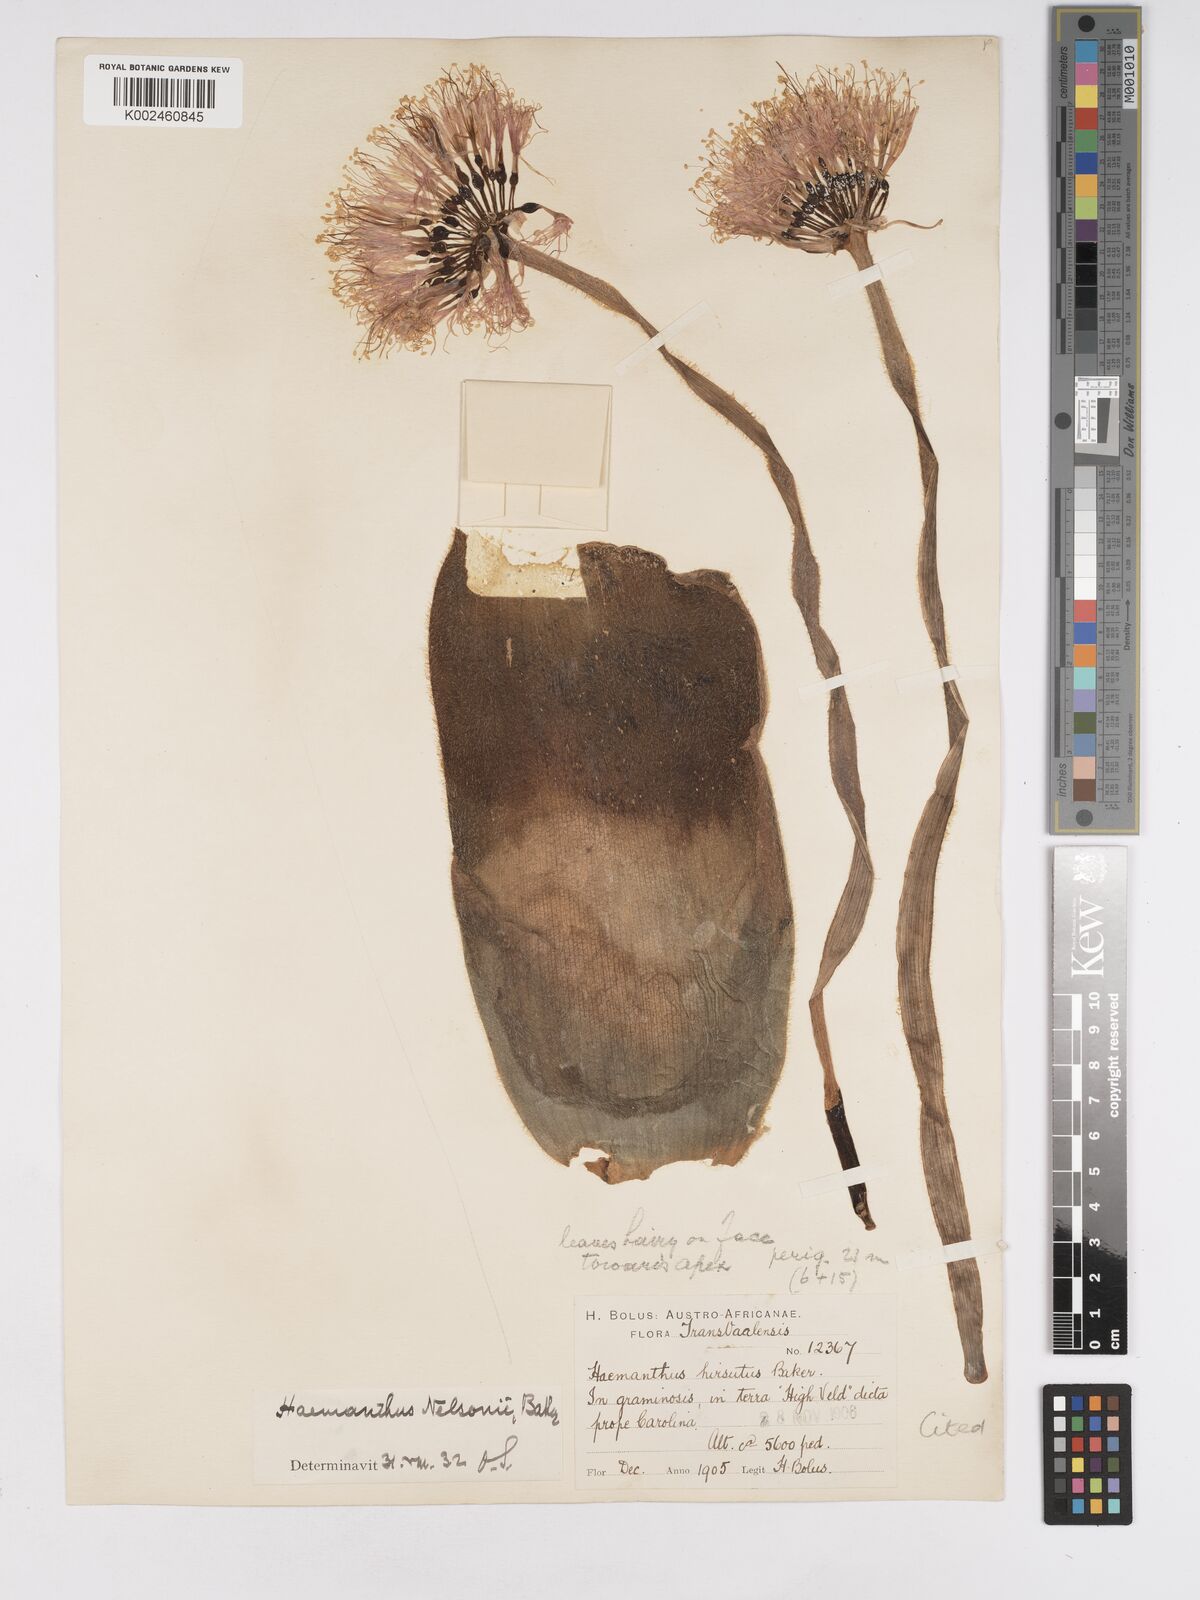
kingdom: Plantae
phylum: Tracheophyta
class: Liliopsida
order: Asparagales
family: Amaryllidaceae
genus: Haemanthus
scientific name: Haemanthus humilis
